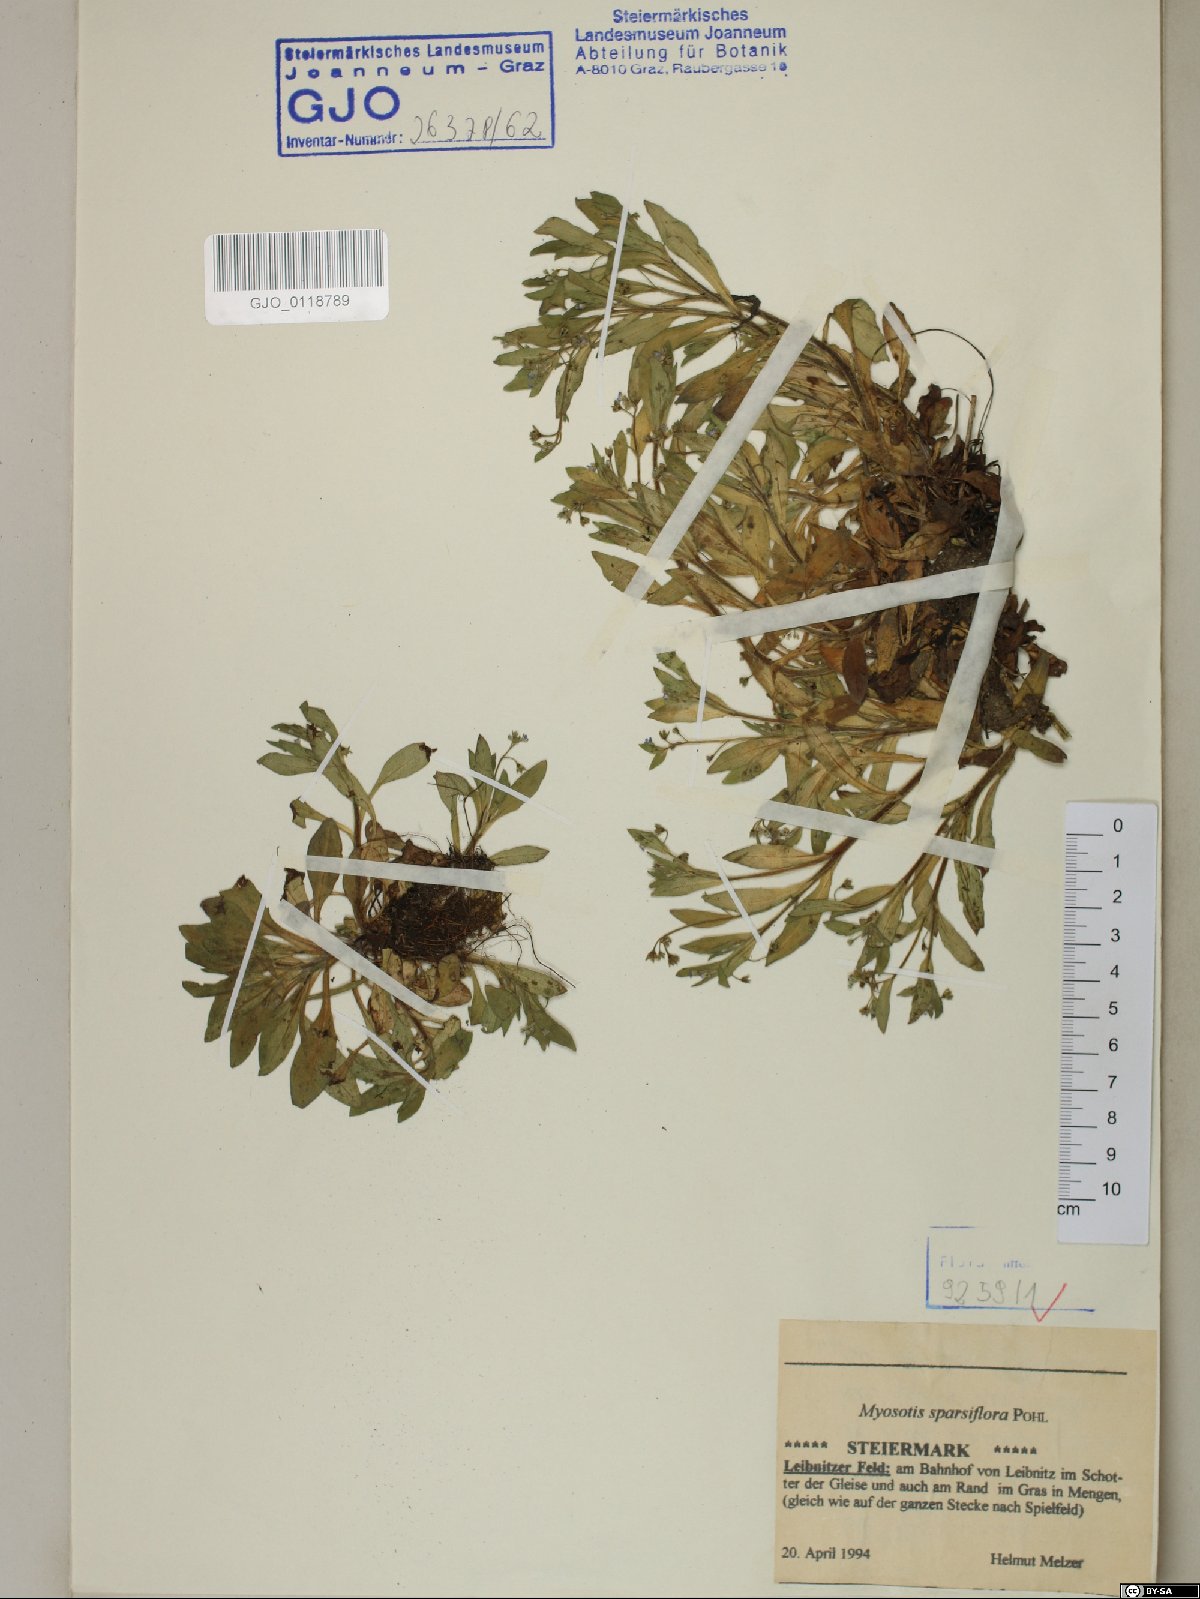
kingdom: Plantae
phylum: Tracheophyta
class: Magnoliopsida
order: Boraginales
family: Boraginaceae
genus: Myosotis
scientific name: Myosotis sparsiflora
